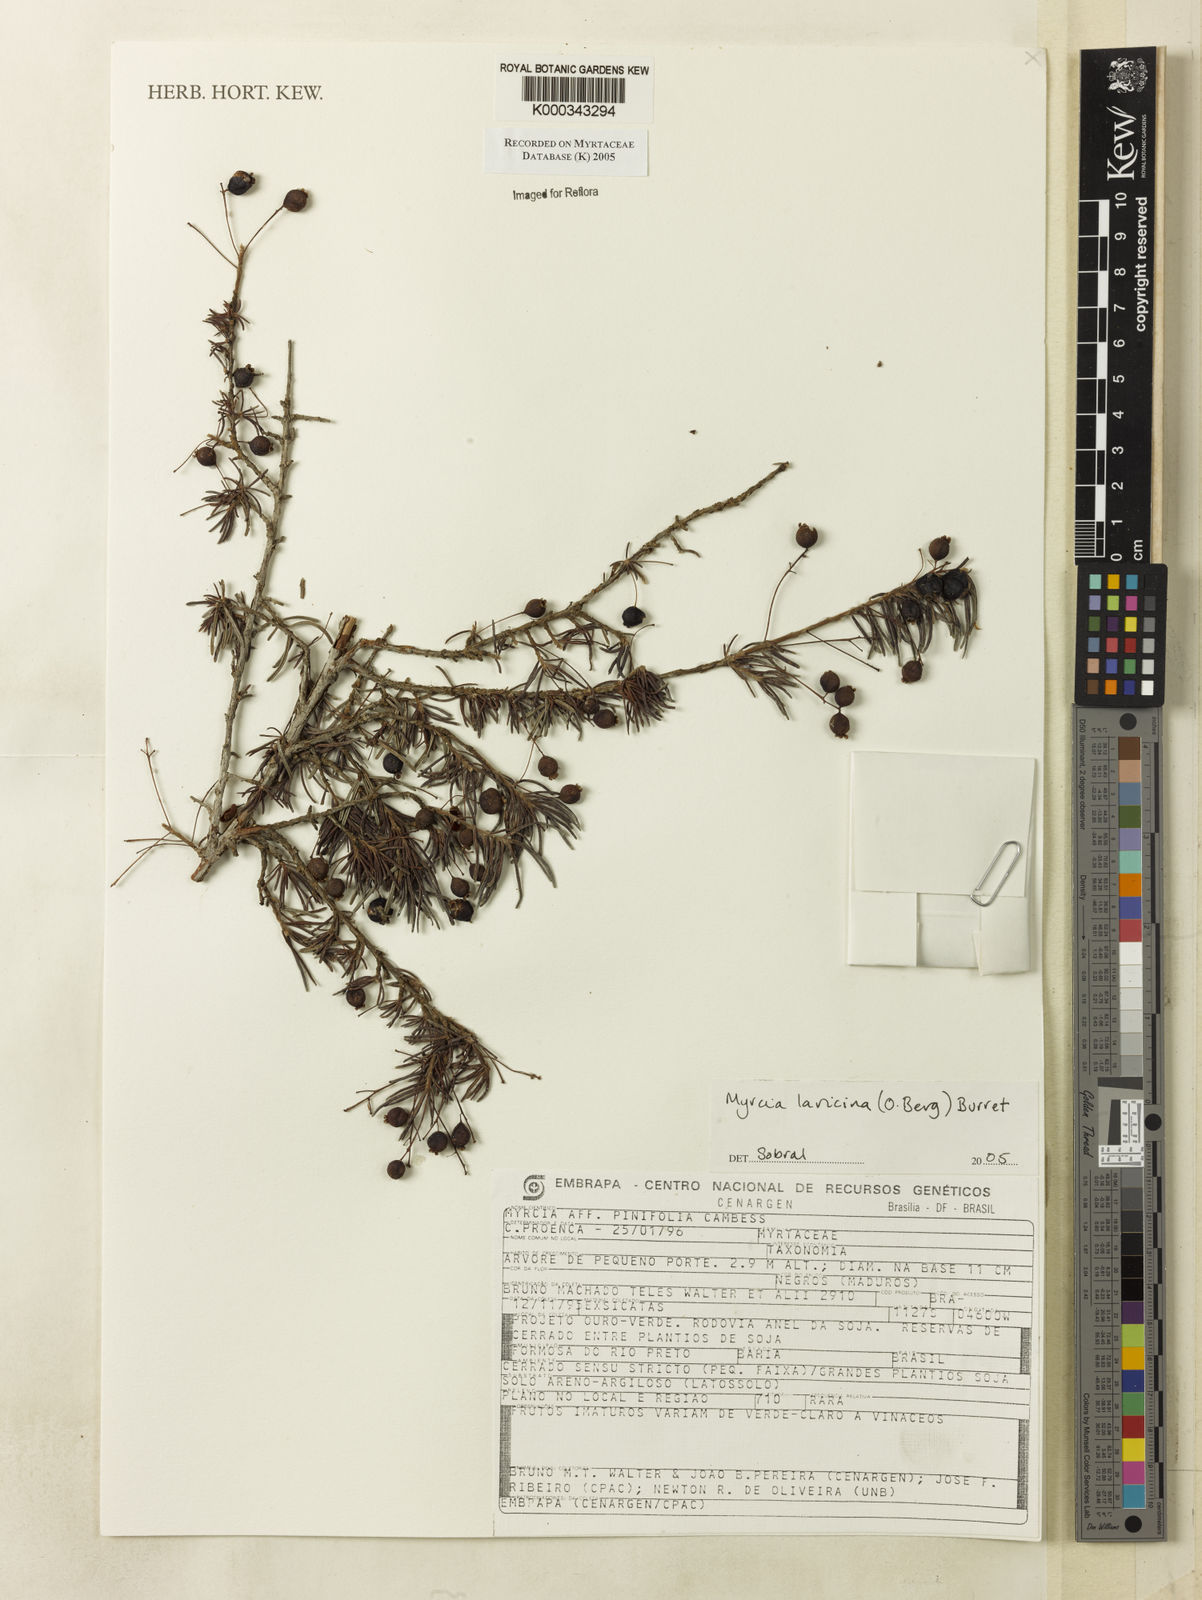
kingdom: Plantae
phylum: Tracheophyta
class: Magnoliopsida
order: Myrtales
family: Myrtaceae
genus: Myrcia
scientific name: Myrcia laricina
